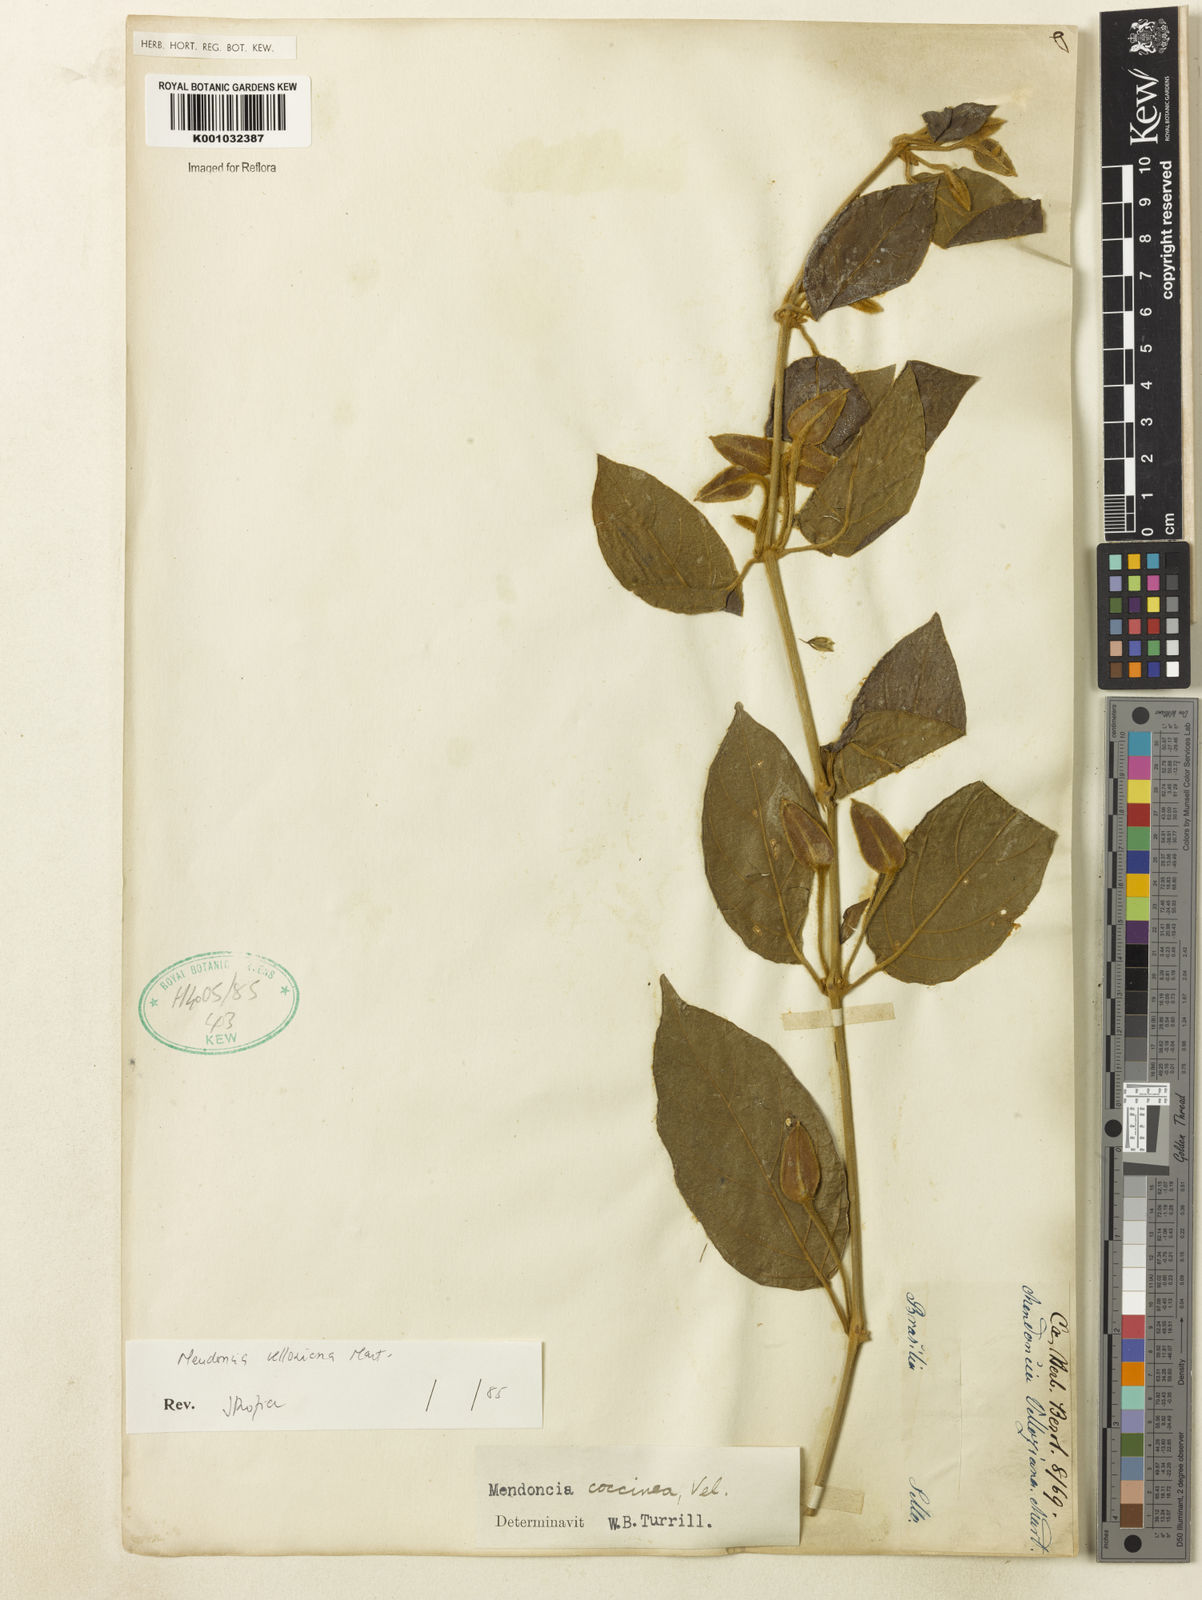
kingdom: Plantae
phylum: Tracheophyta
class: Magnoliopsida
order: Lamiales
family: Acanthaceae
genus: Mendoncia
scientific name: Mendoncia velloziana
